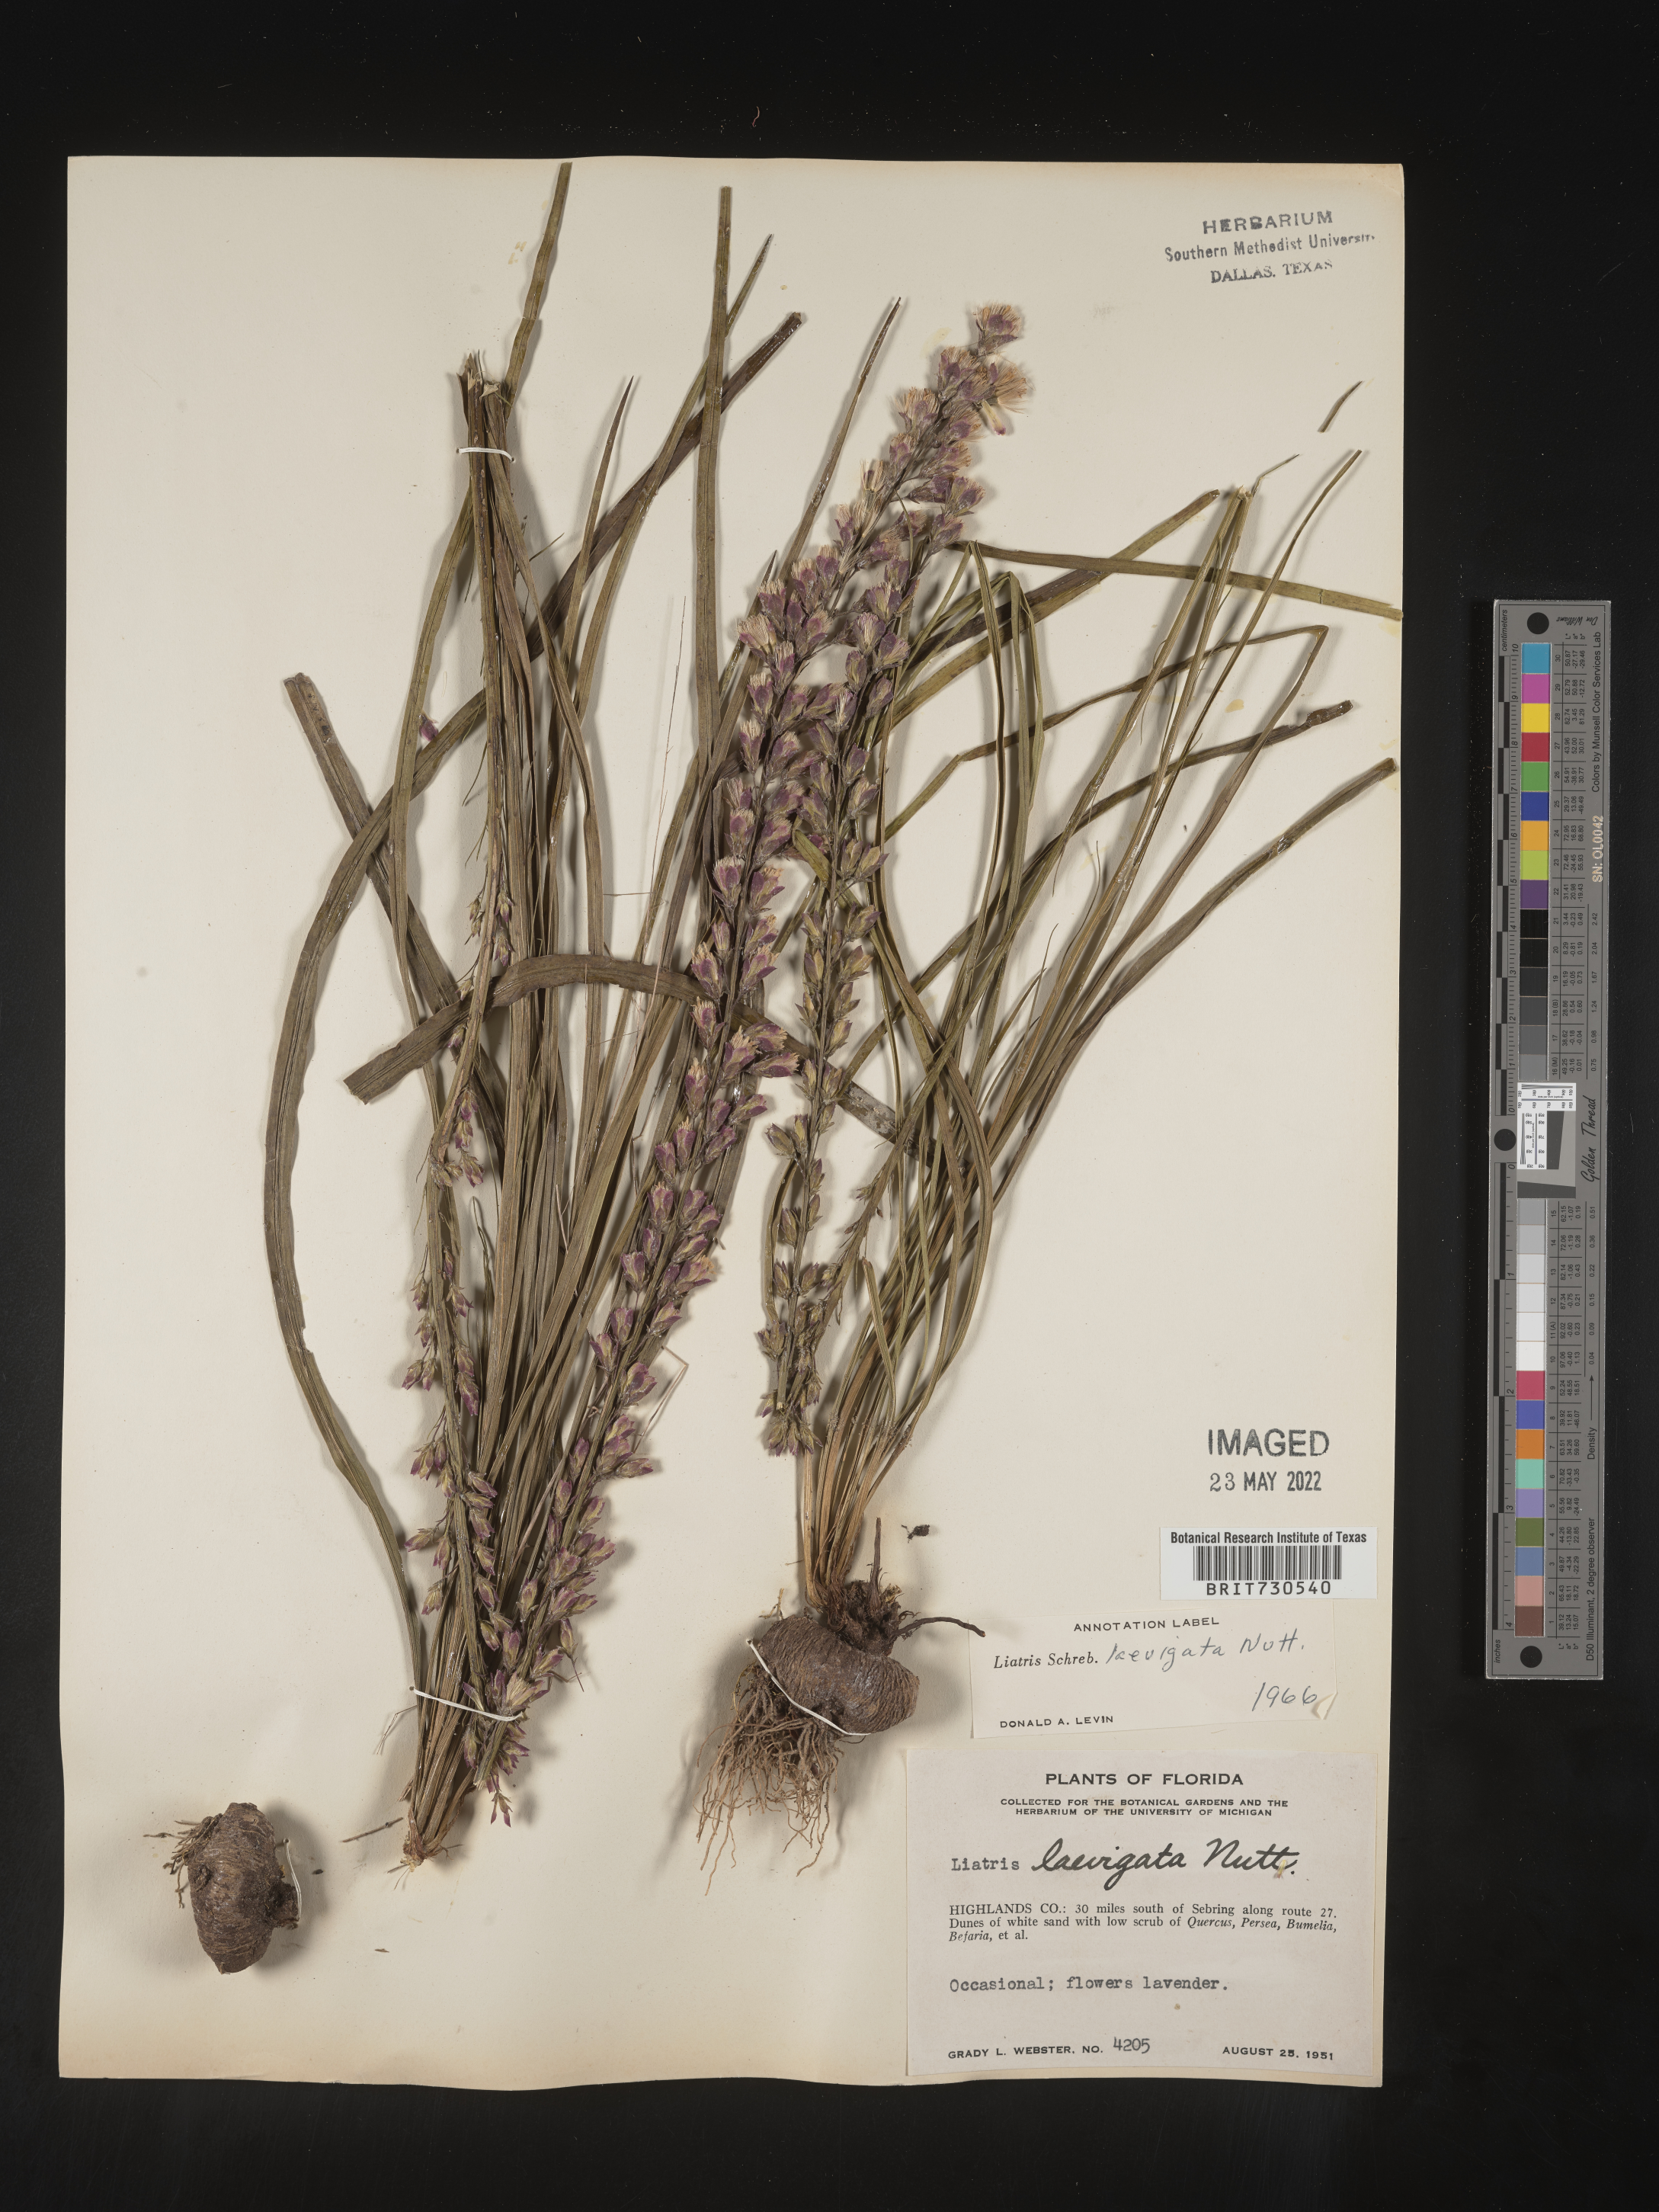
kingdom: Plantae
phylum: Tracheophyta
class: Magnoliopsida
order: Asterales
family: Asteraceae
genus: Liatris
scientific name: Liatris laevigata
